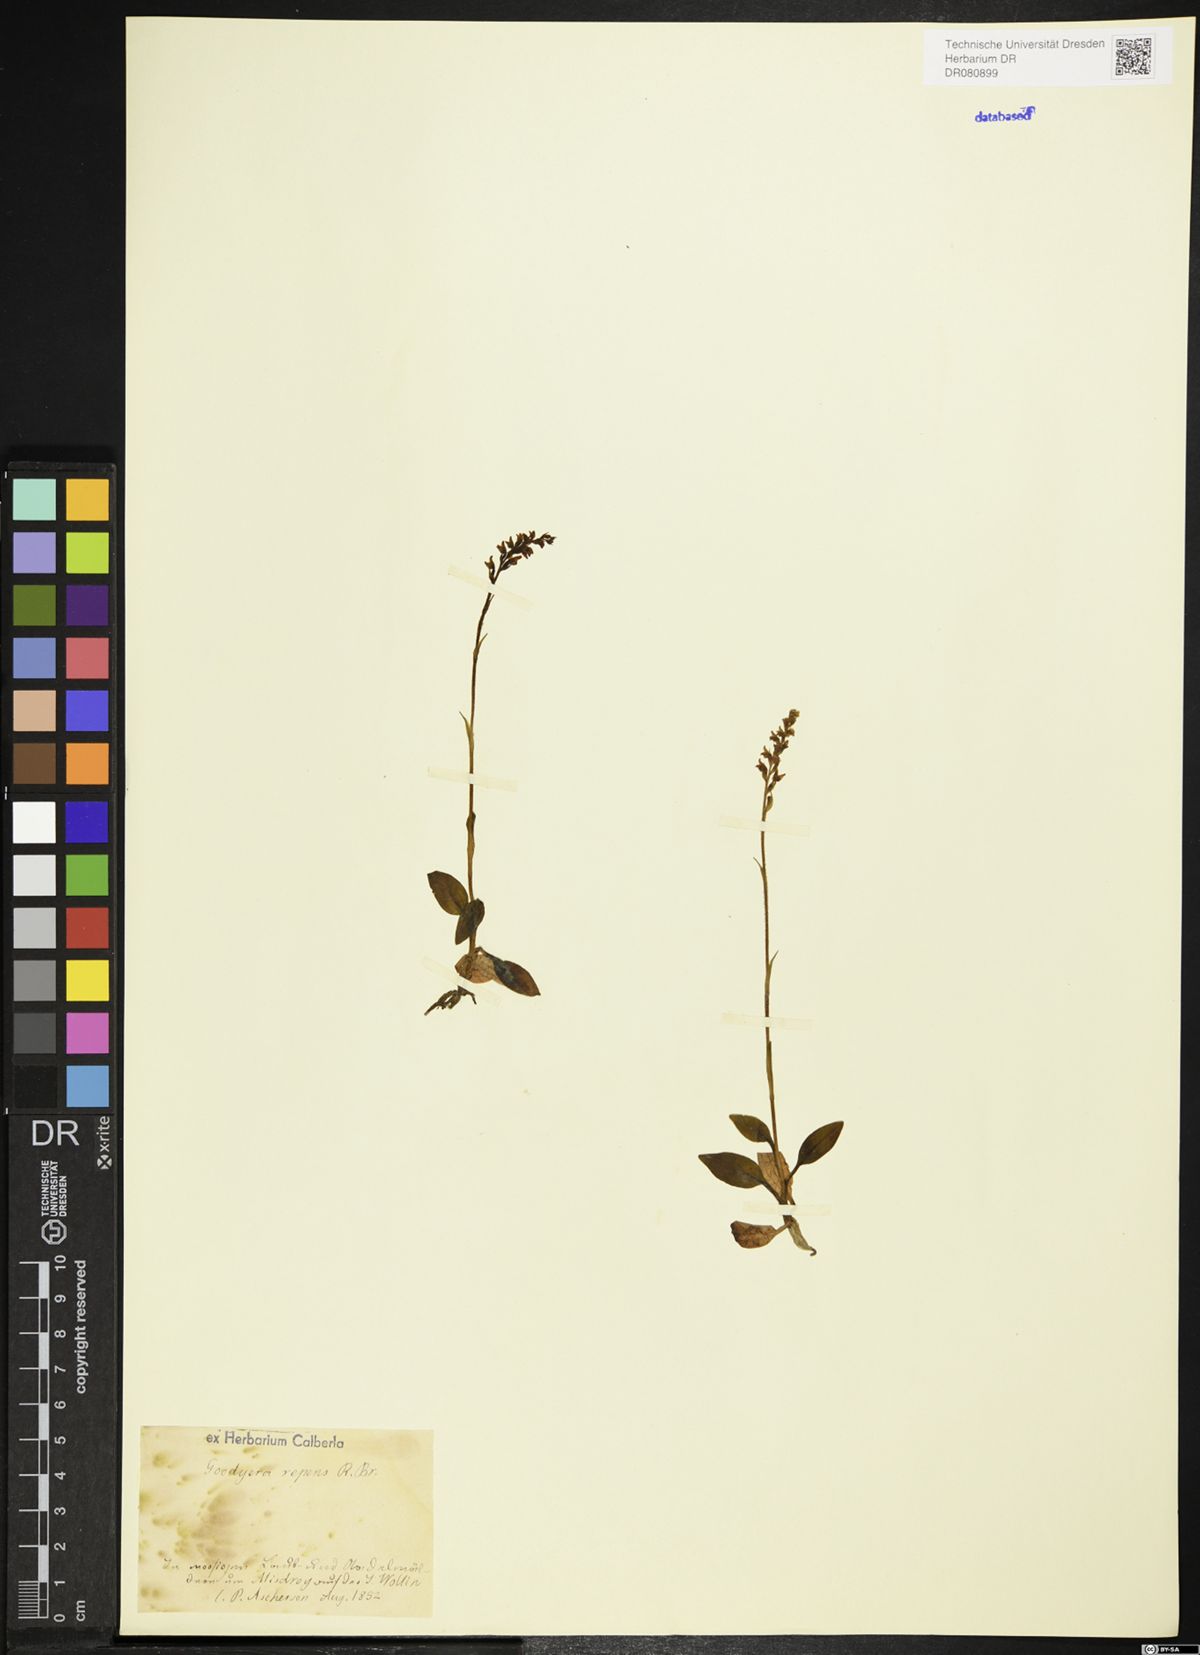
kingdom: Plantae
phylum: Tracheophyta
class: Liliopsida
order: Asparagales
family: Orchidaceae
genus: Goodyera
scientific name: Goodyera repens
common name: Creeping lady's-tresses
